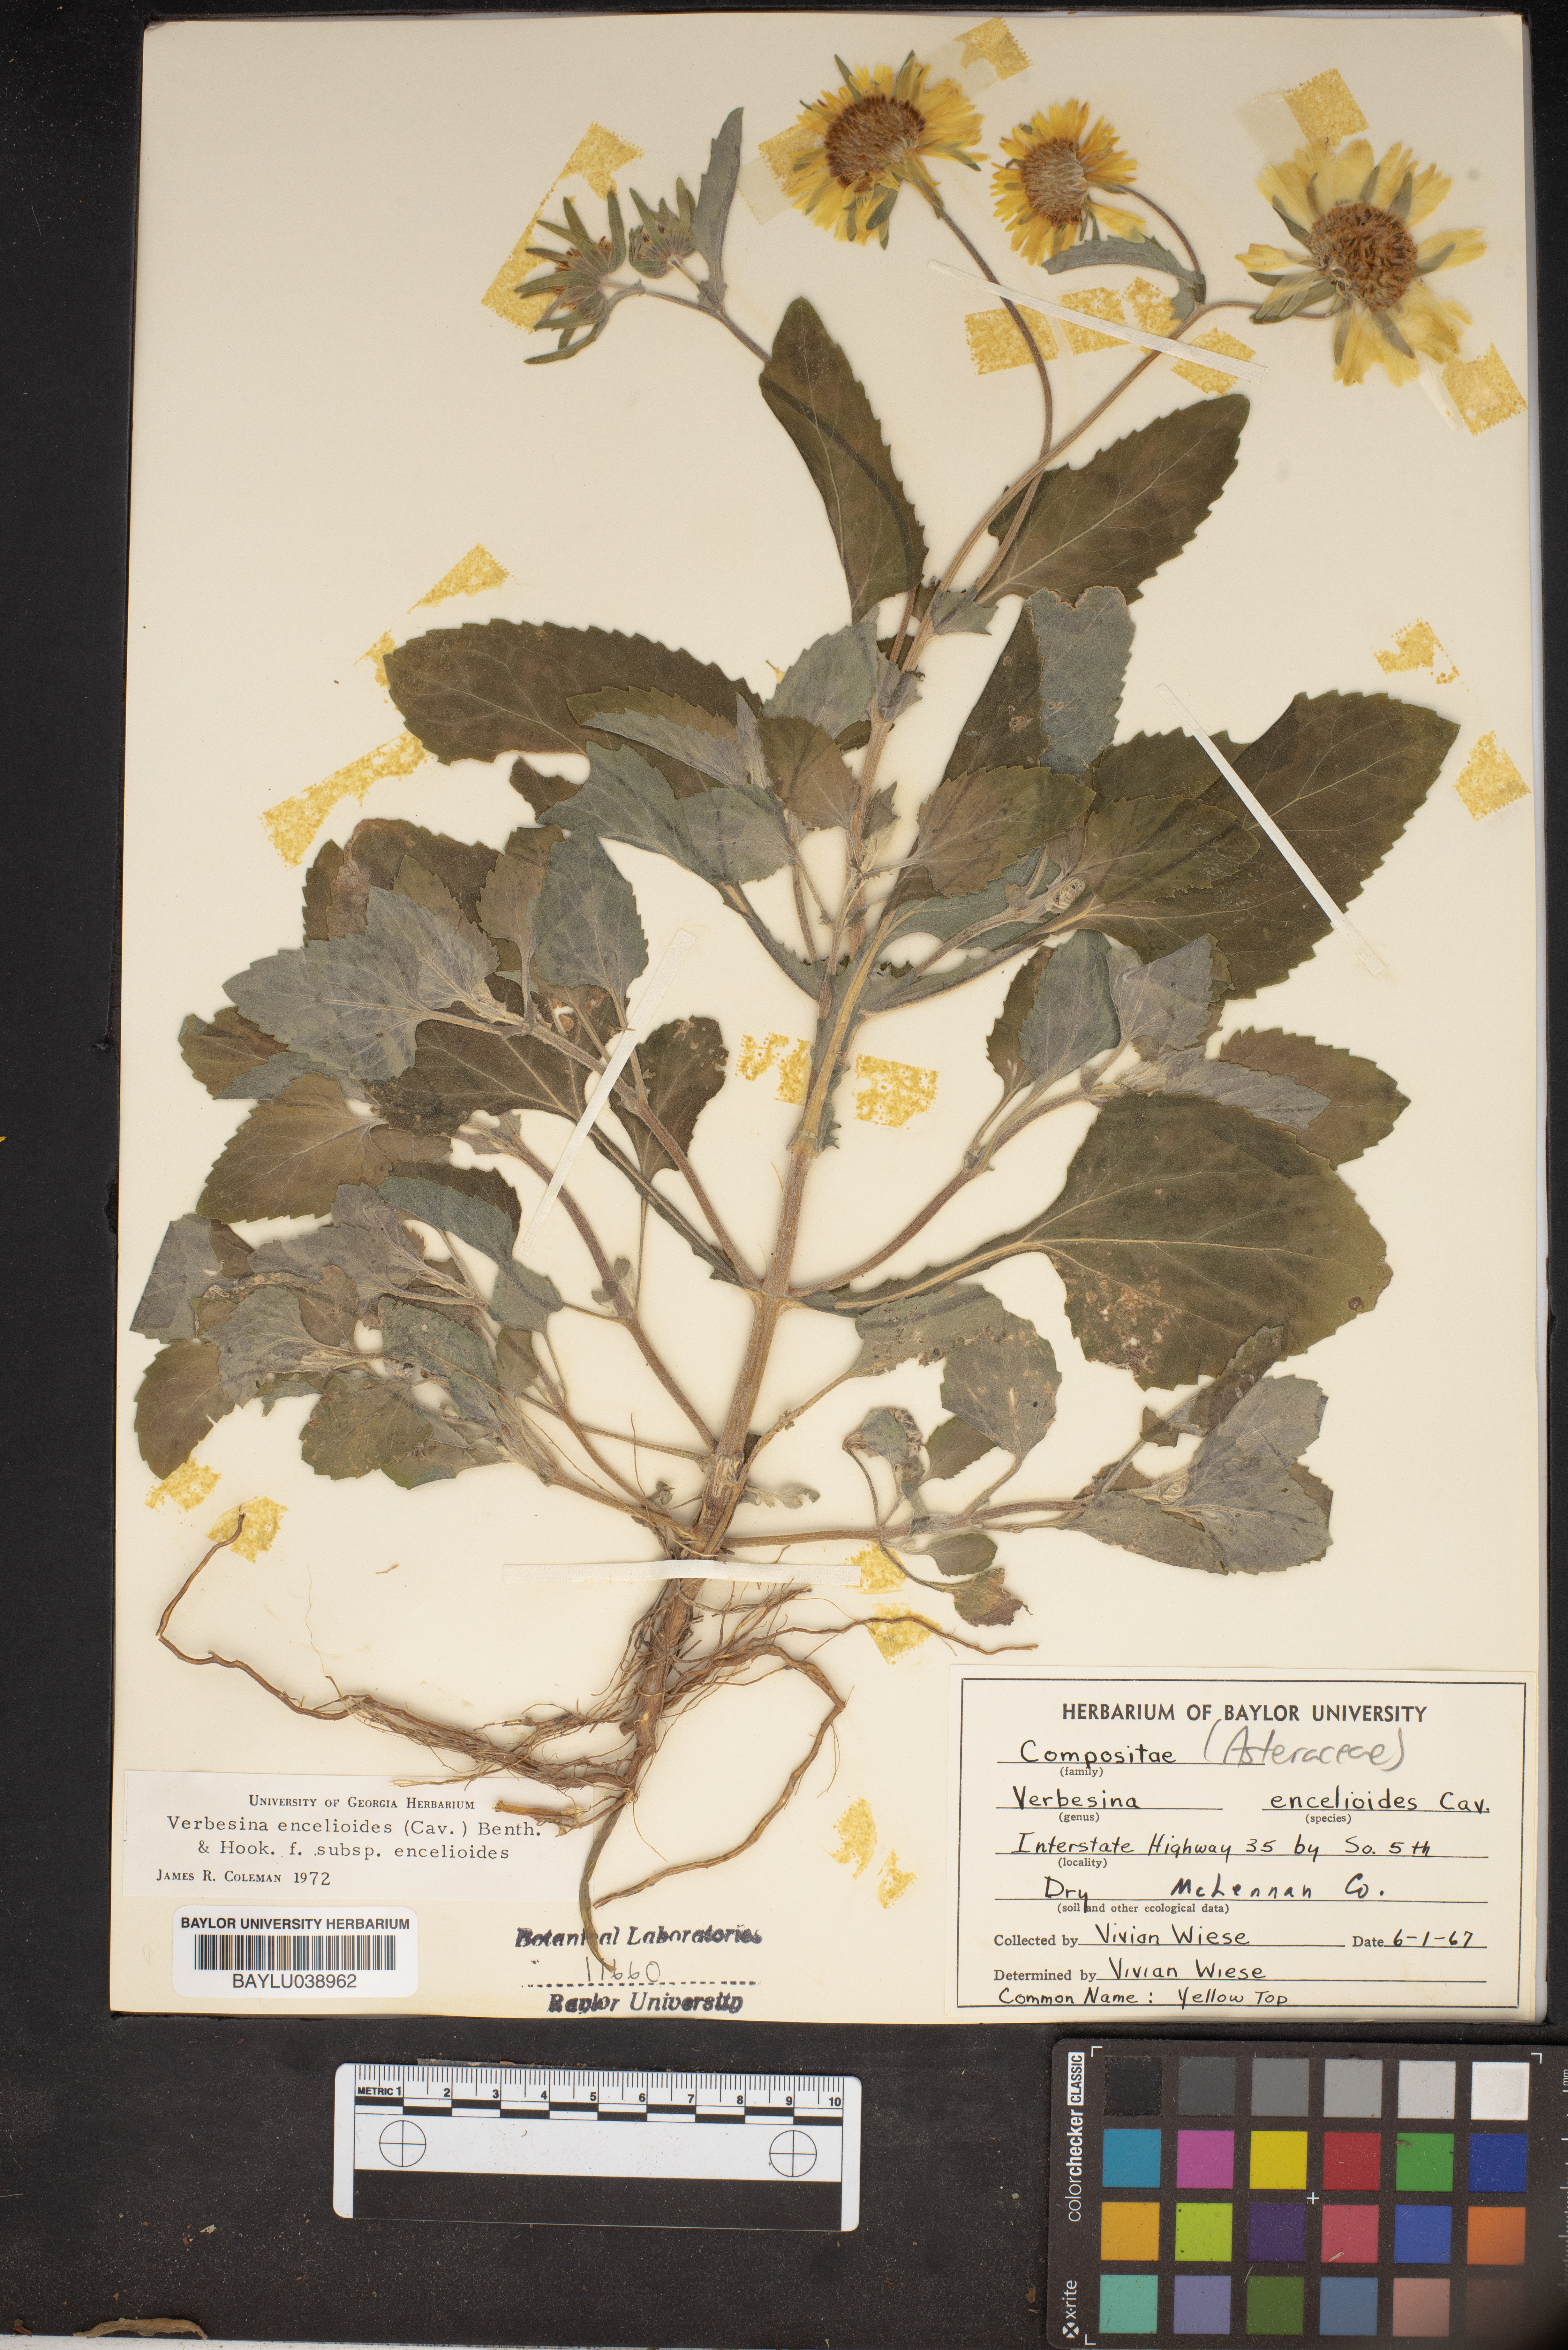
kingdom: Plantae
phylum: Tracheophyta
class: Magnoliopsida
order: Asterales
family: Asteraceae
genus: Verbesina
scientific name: Verbesina encelioides
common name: Golden crownbeard
